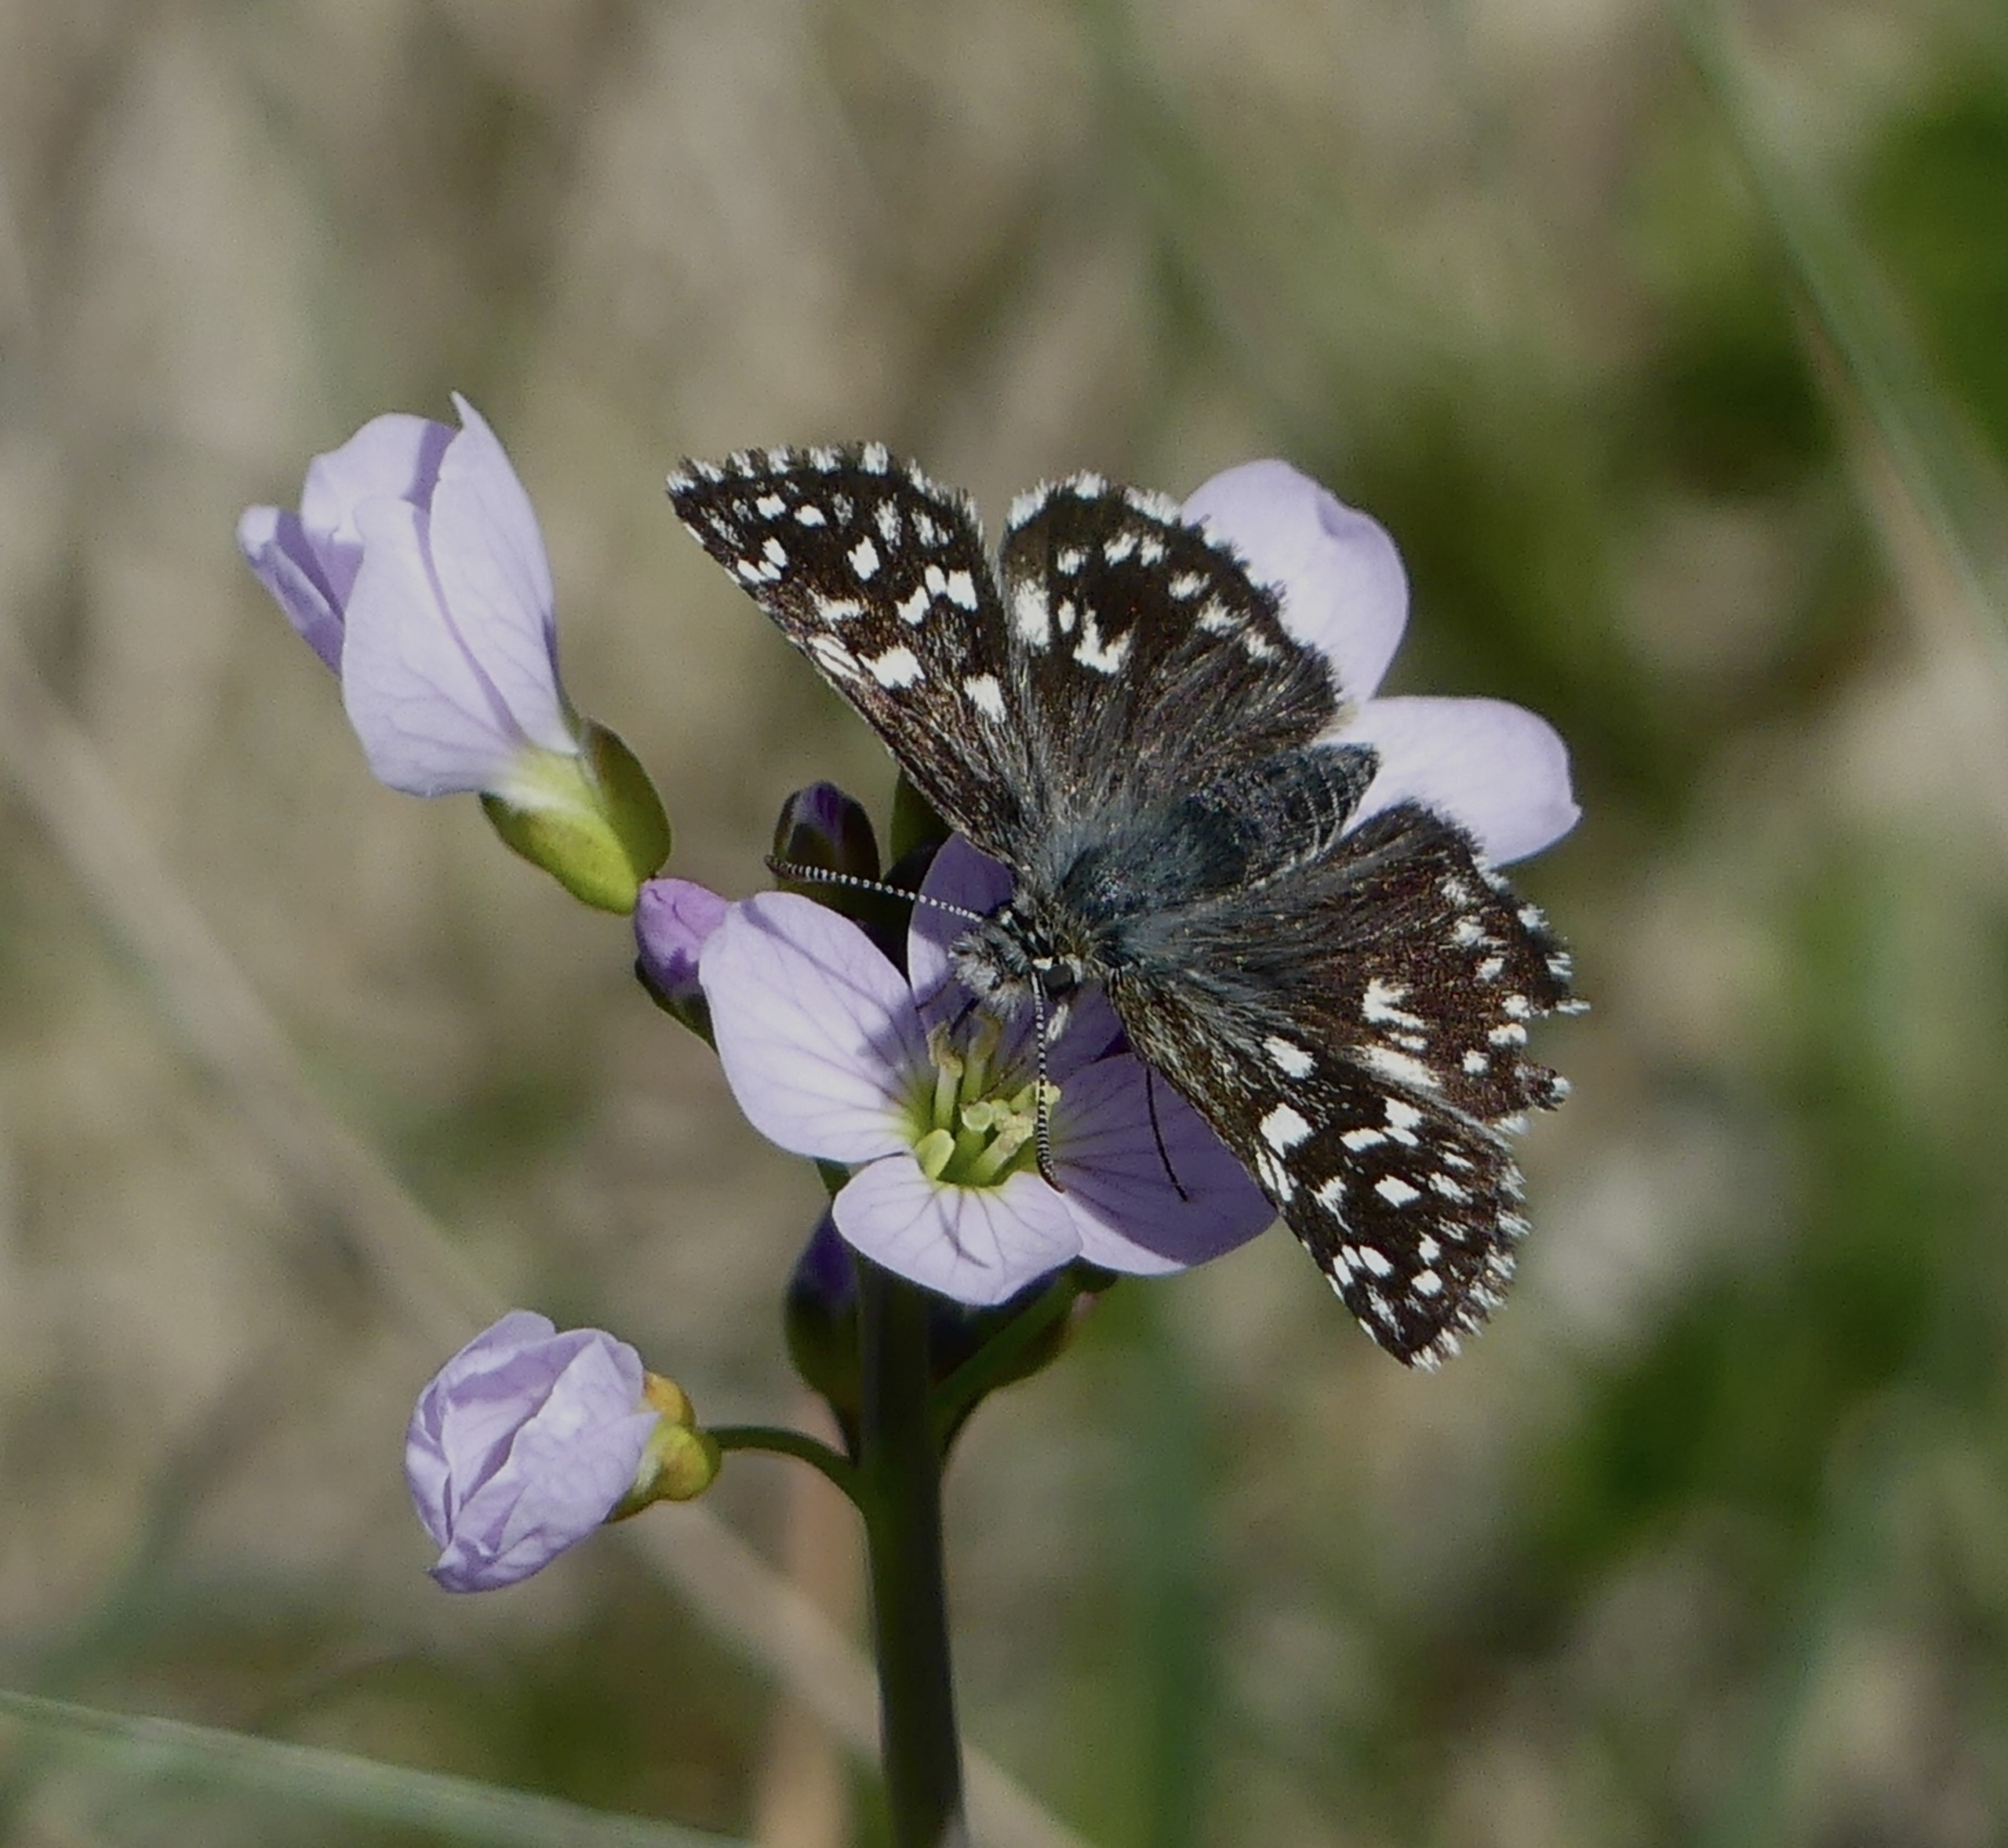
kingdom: Animalia
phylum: Arthropoda
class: Insecta
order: Lepidoptera
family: Hesperiidae
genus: Pyrgus
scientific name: Pyrgus malvae
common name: Spættet bredpande
